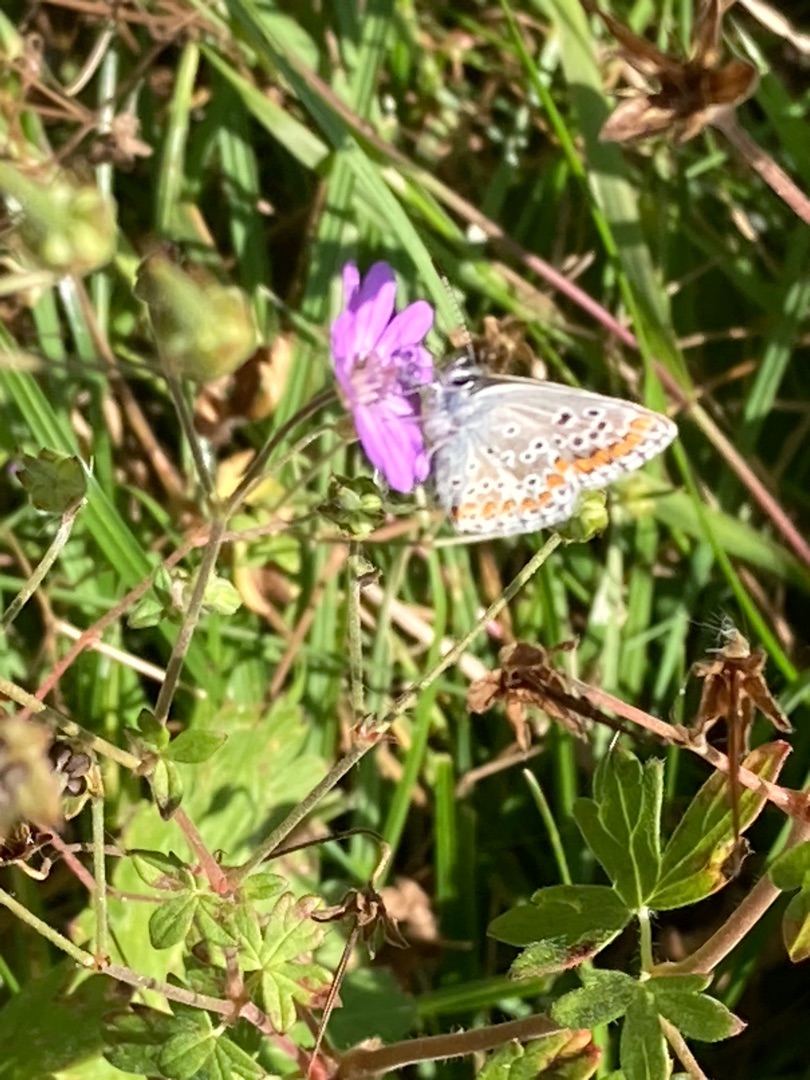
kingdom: Animalia
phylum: Arthropoda
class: Insecta
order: Lepidoptera
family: Lycaenidae
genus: Aricia
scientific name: Aricia agestis
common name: Rødplettet blåfugl
